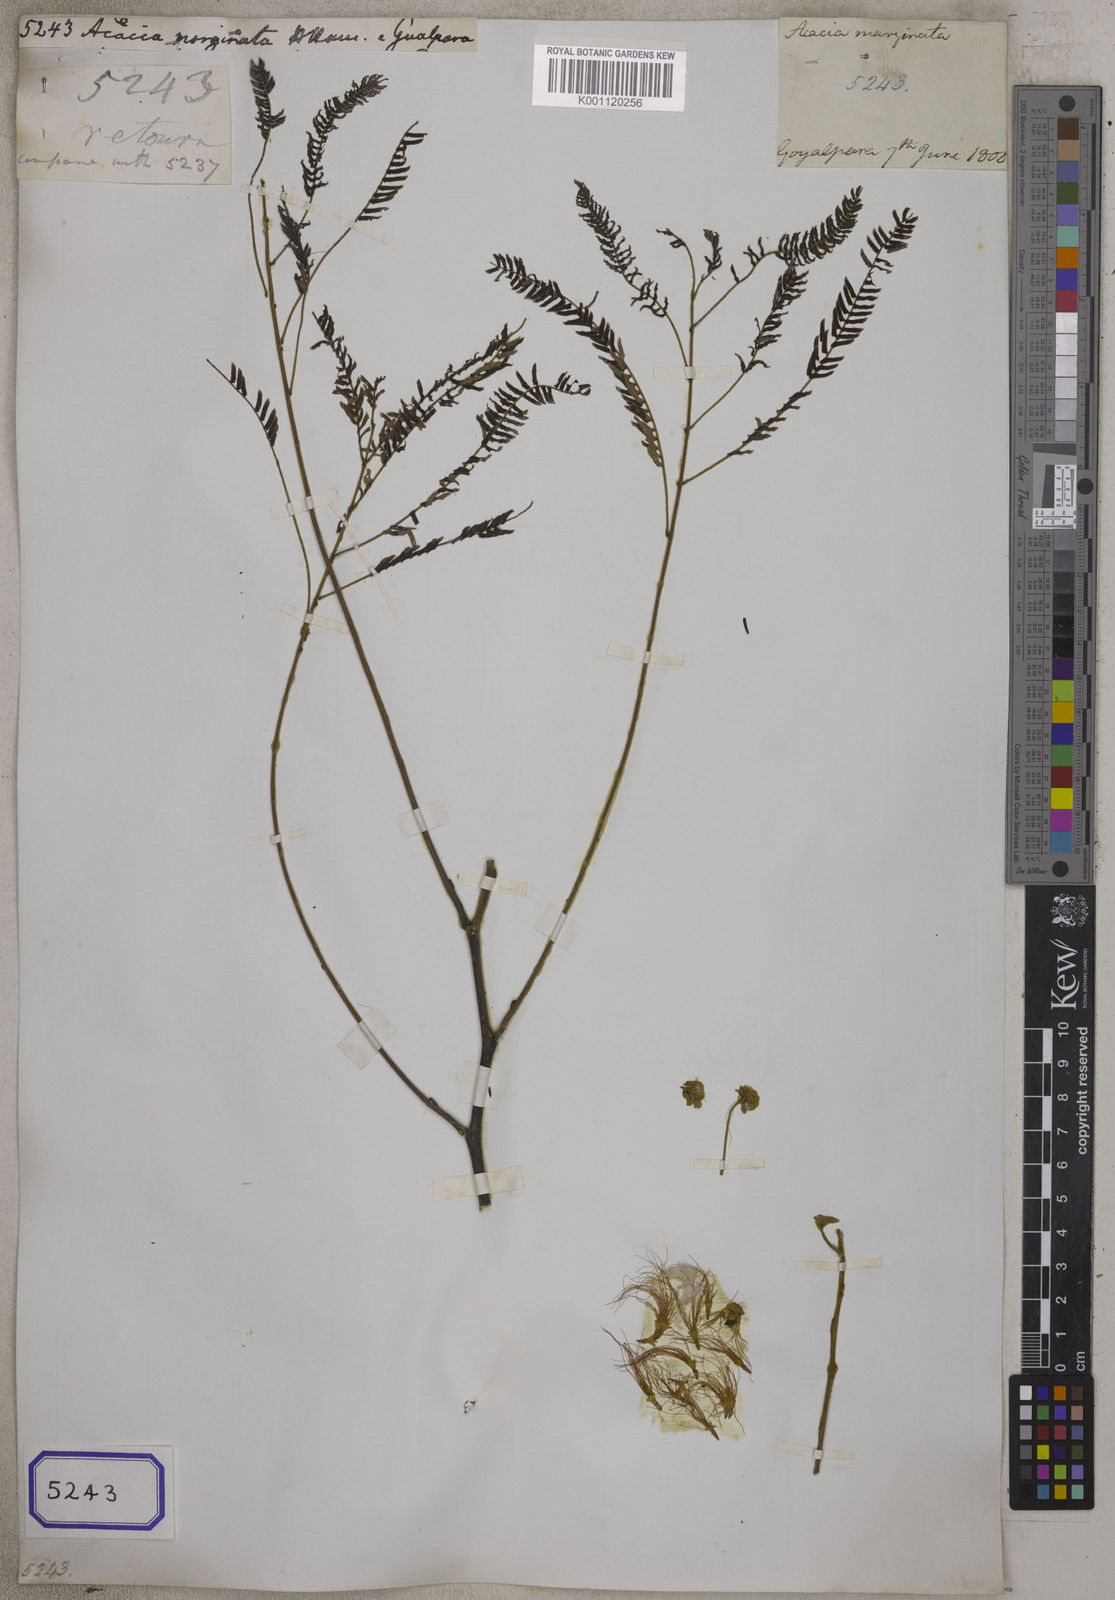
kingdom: Plantae
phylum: Tracheophyta
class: Magnoliopsida
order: Fabales
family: Fabaceae
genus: Albizia
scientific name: Albizia chinensis
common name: Chinese albizia
